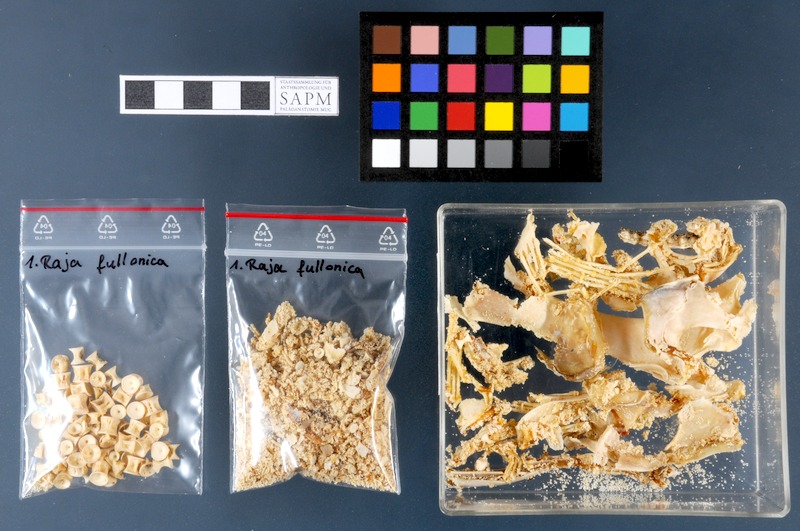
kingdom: Animalia
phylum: Chordata
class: Elasmobranchii
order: Rajiformes
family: Rajidae
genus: Leucoraja
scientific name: Leucoraja fullonica
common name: Shagreen ray
